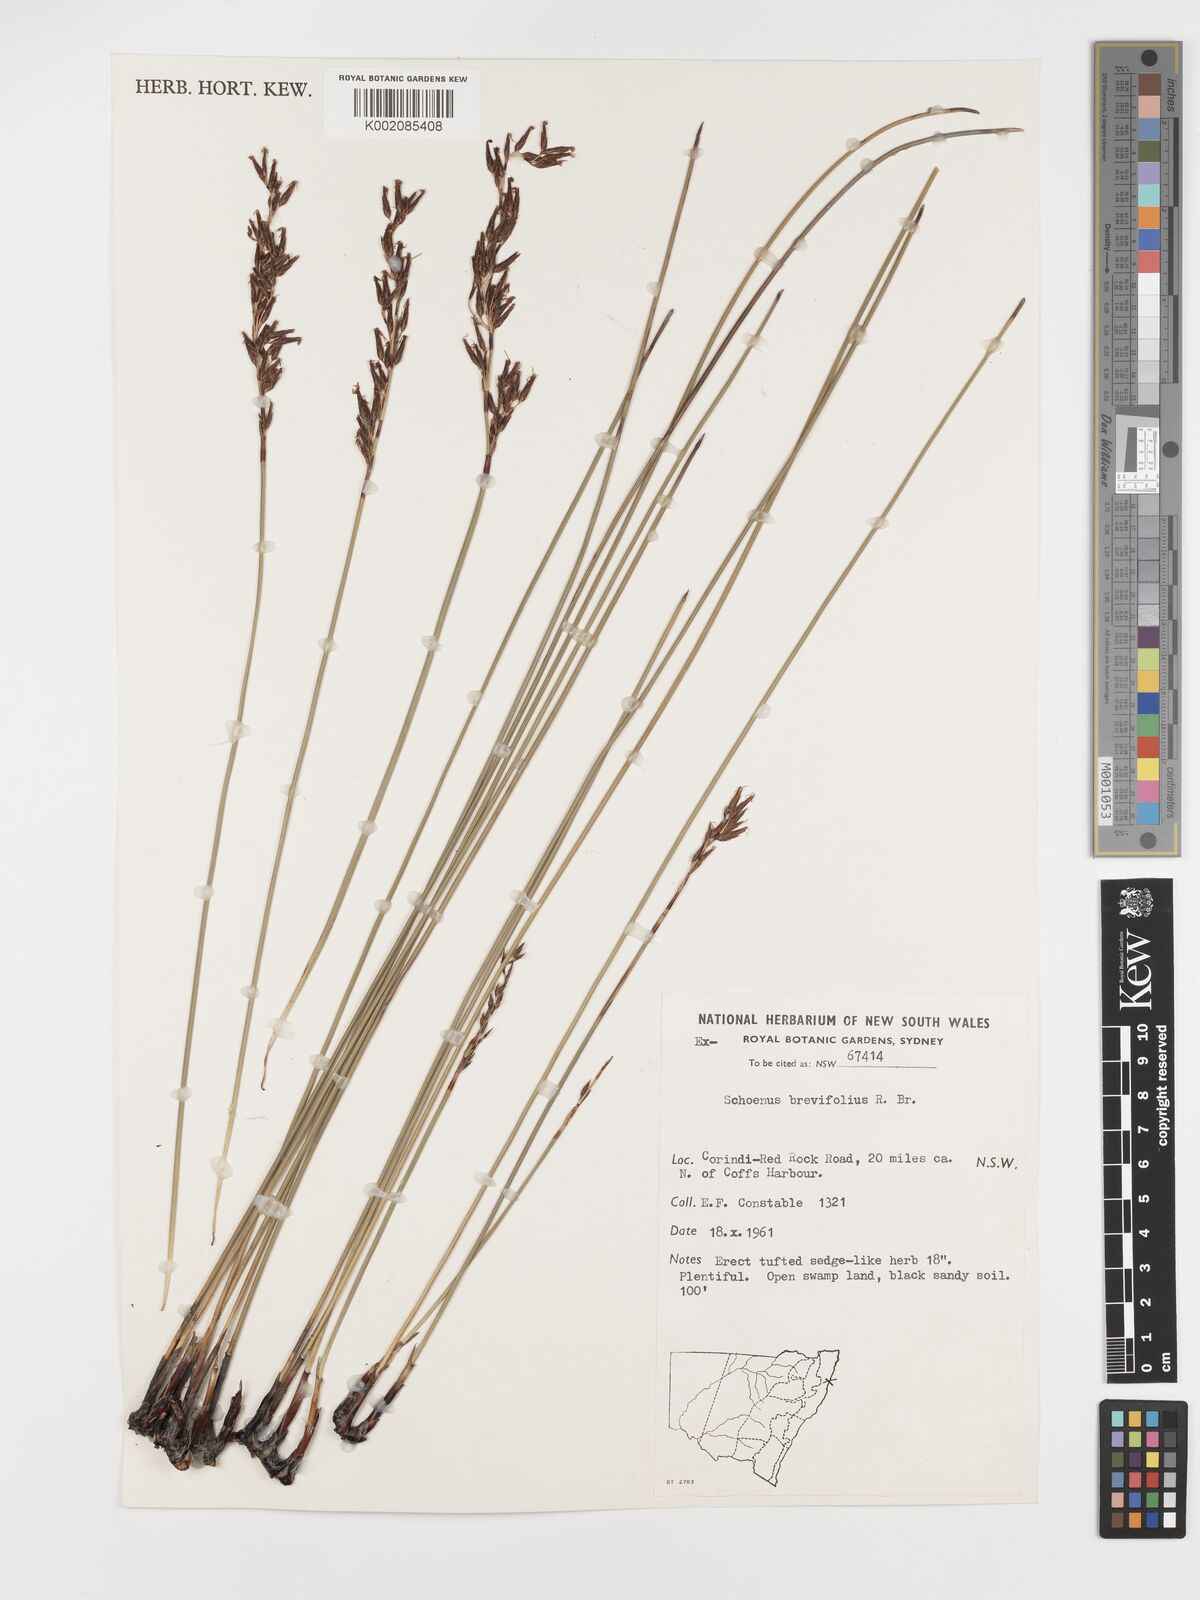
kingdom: Plantae
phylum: Tracheophyta
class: Liliopsida
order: Poales
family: Cyperaceae
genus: Schoenus
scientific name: Schoenus brevifolius
